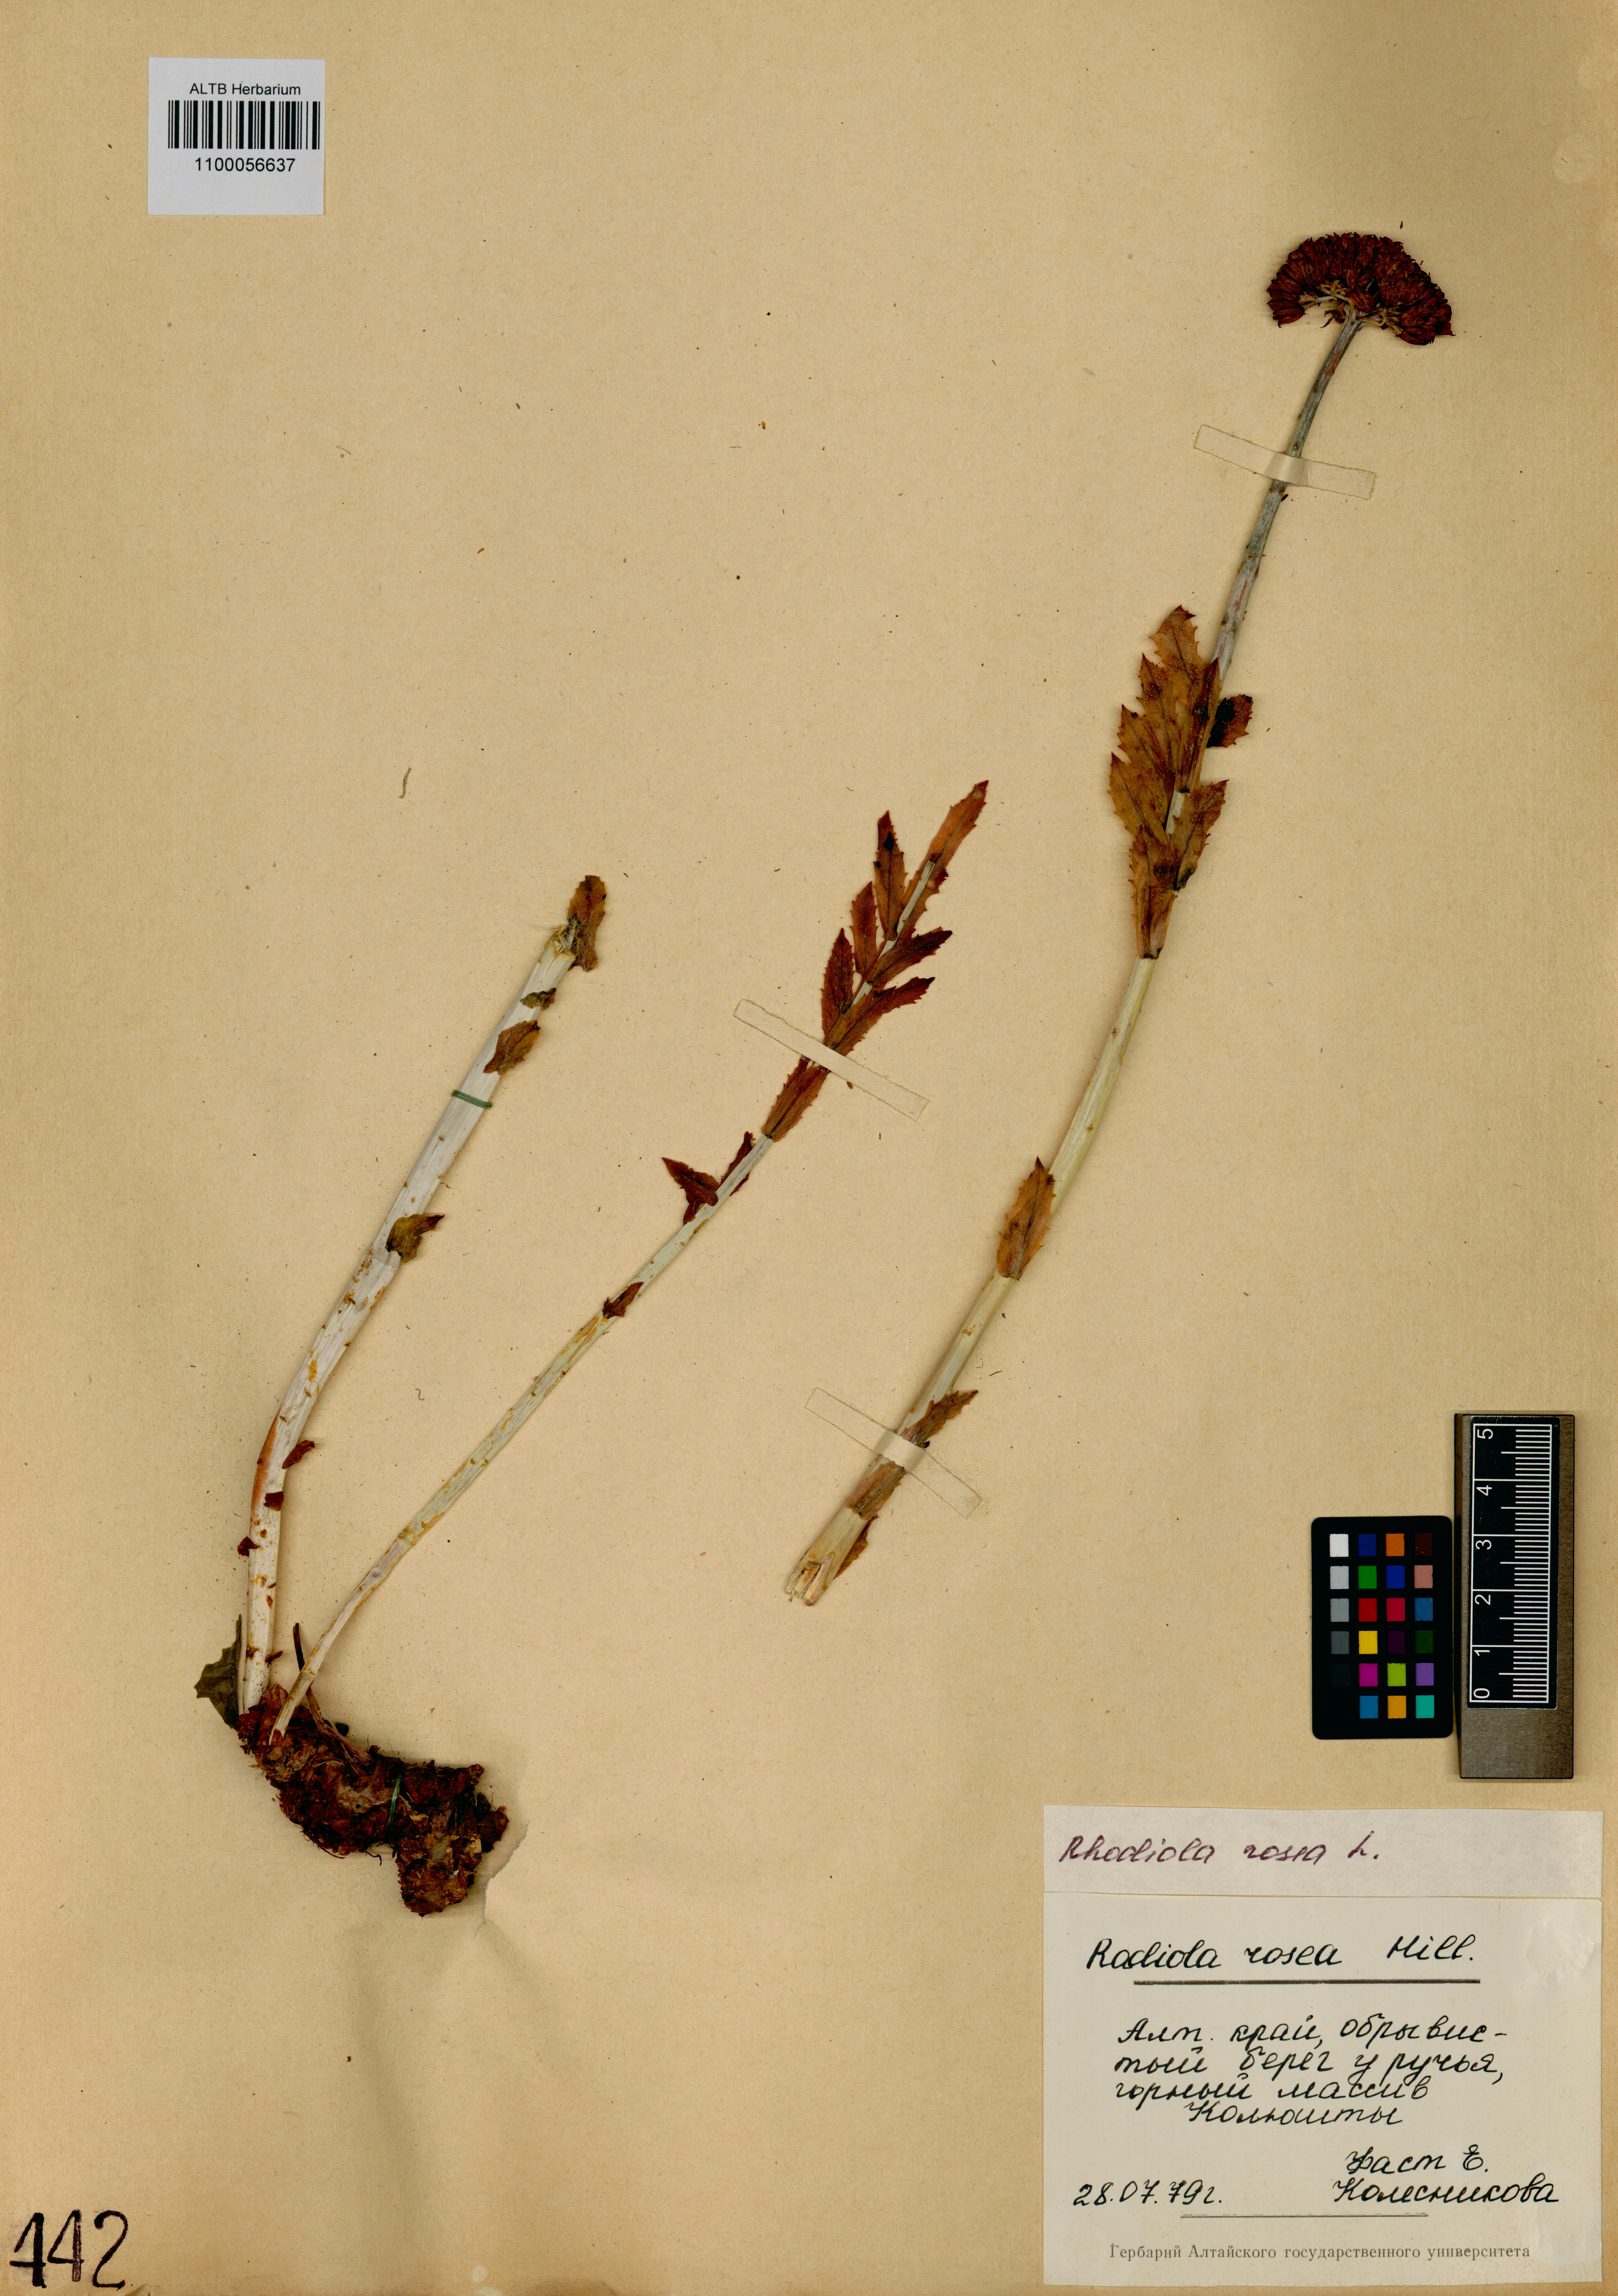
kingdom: Plantae
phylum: Tracheophyta
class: Magnoliopsida
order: Saxifragales
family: Crassulaceae
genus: Rhodiola
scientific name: Rhodiola rosea
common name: Roseroot
